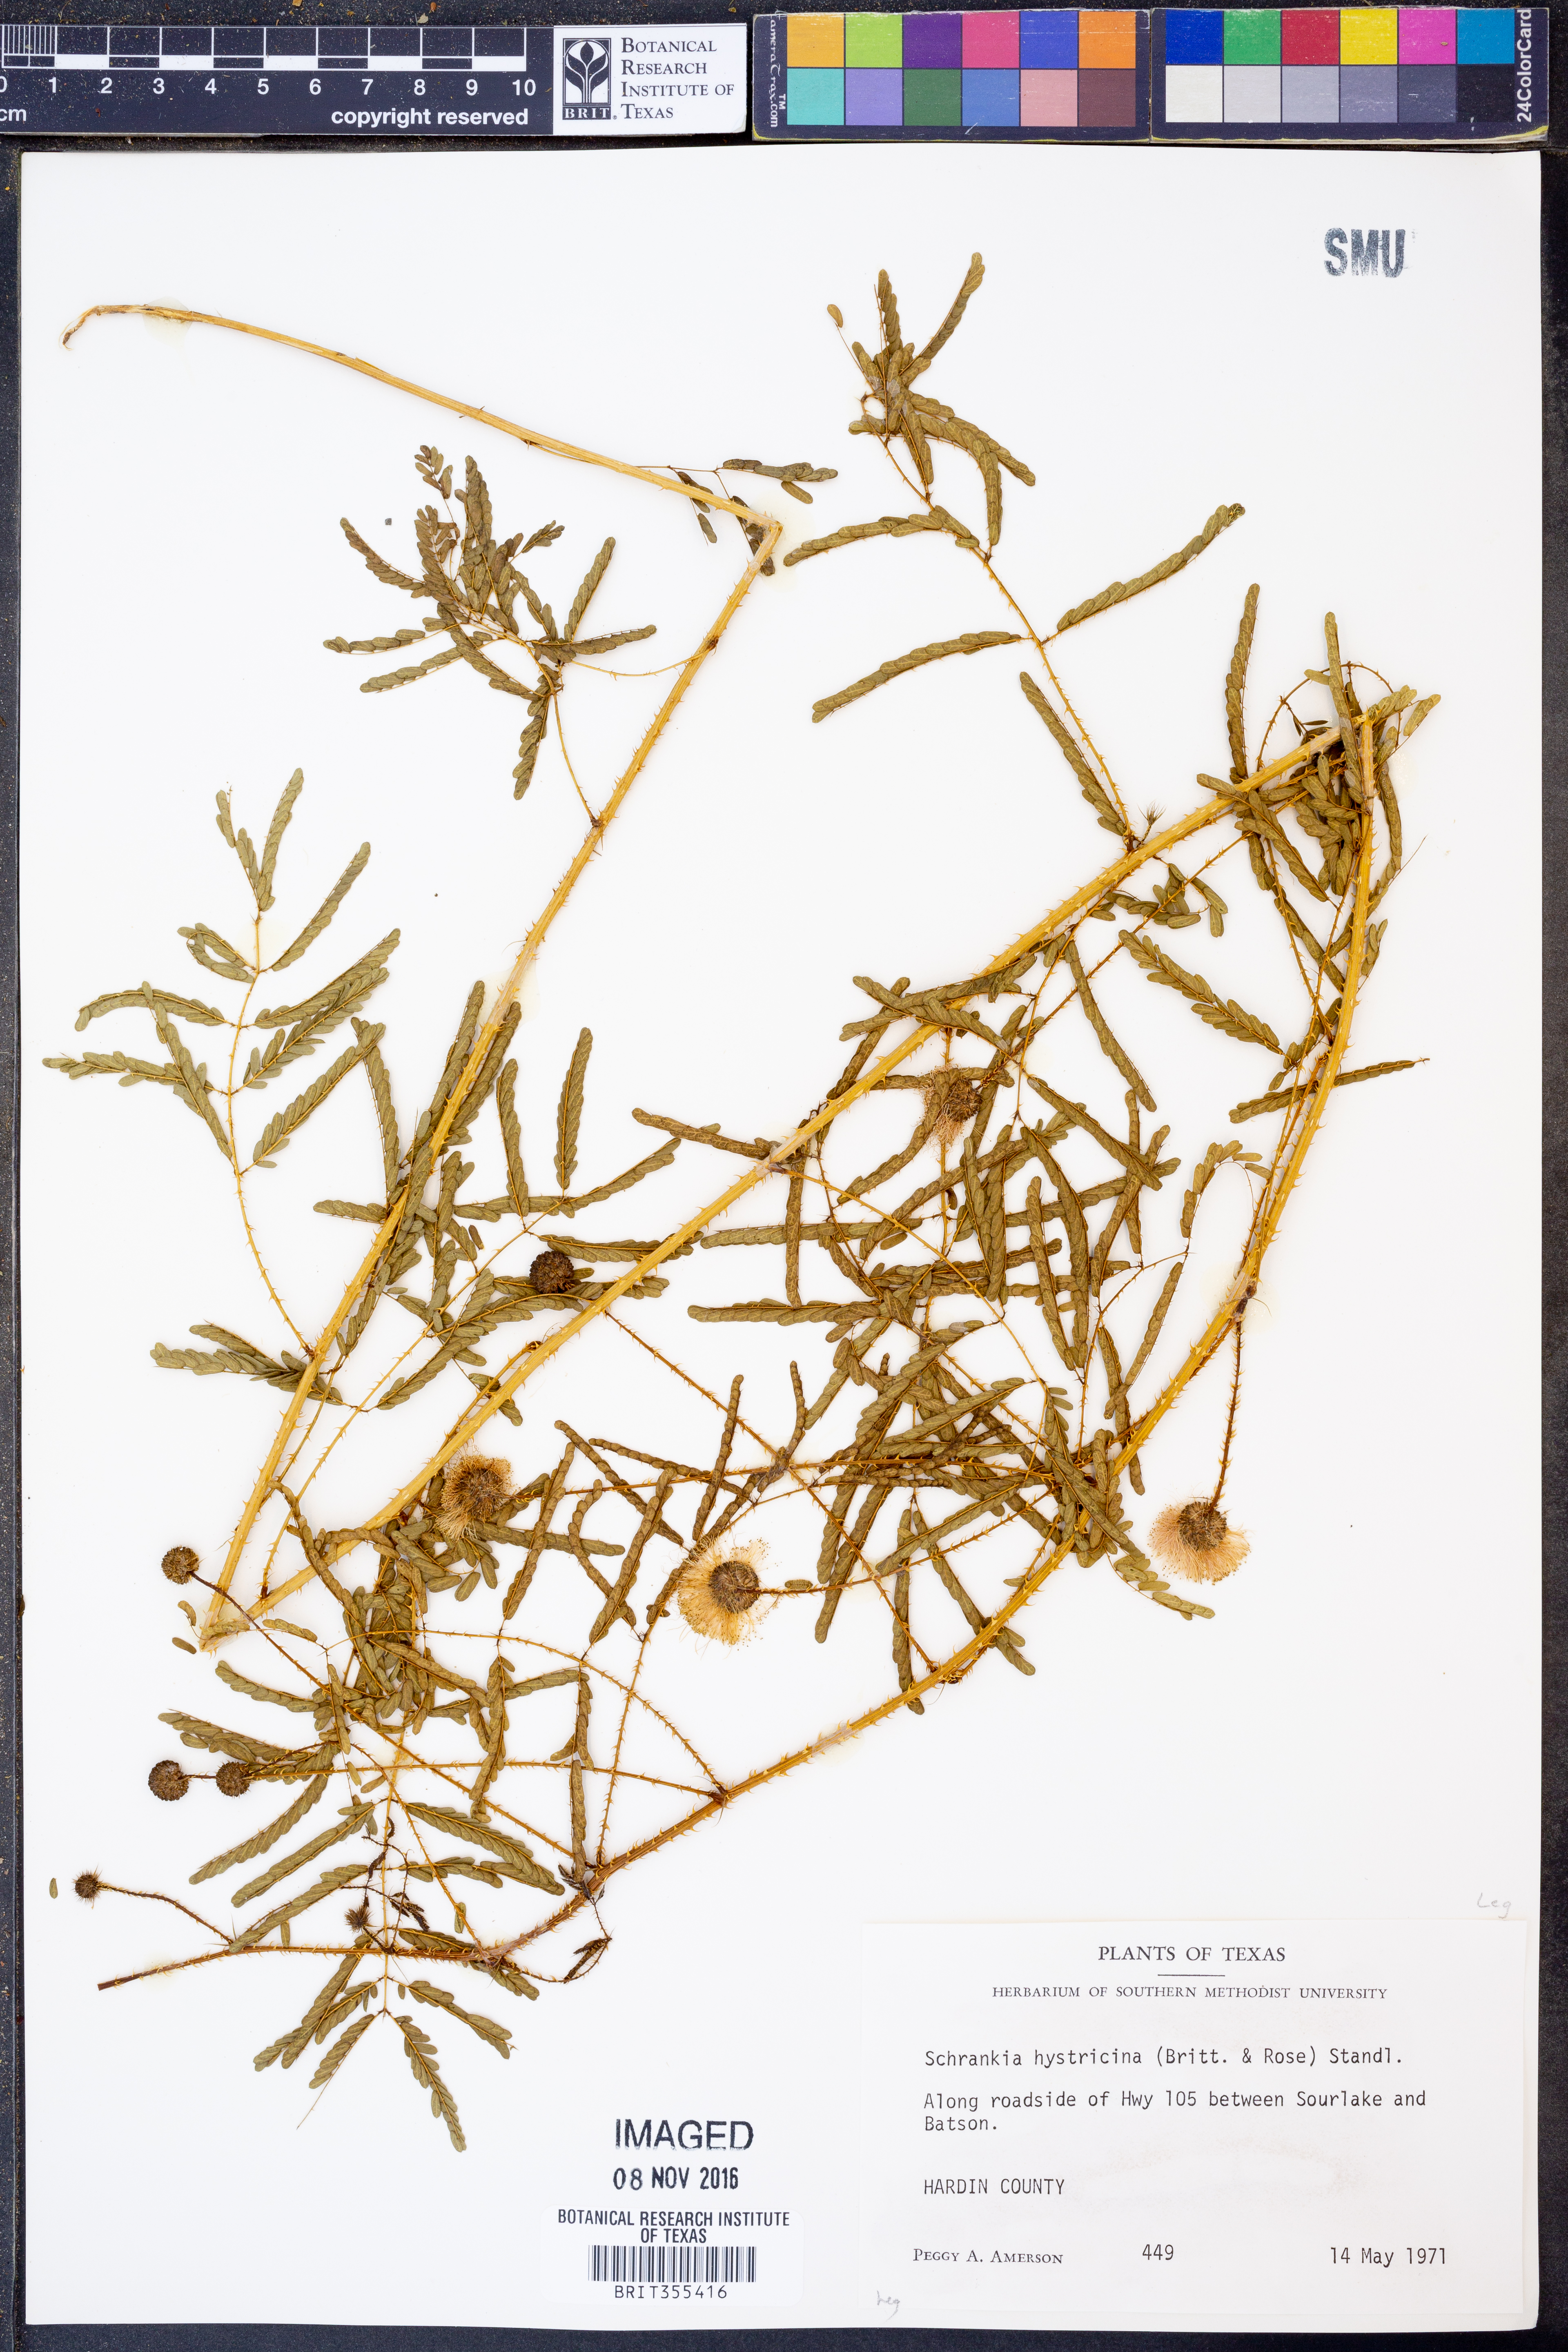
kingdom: Plantae
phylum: Tracheophyta
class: Magnoliopsida
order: Fabales
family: Fabaceae
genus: Mimosa
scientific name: Mimosa hystricina
